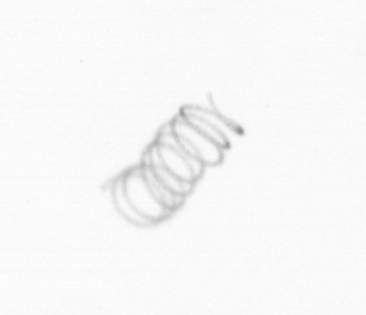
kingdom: Chromista
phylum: Ochrophyta
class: Bacillariophyceae
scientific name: Bacillariophyceae
